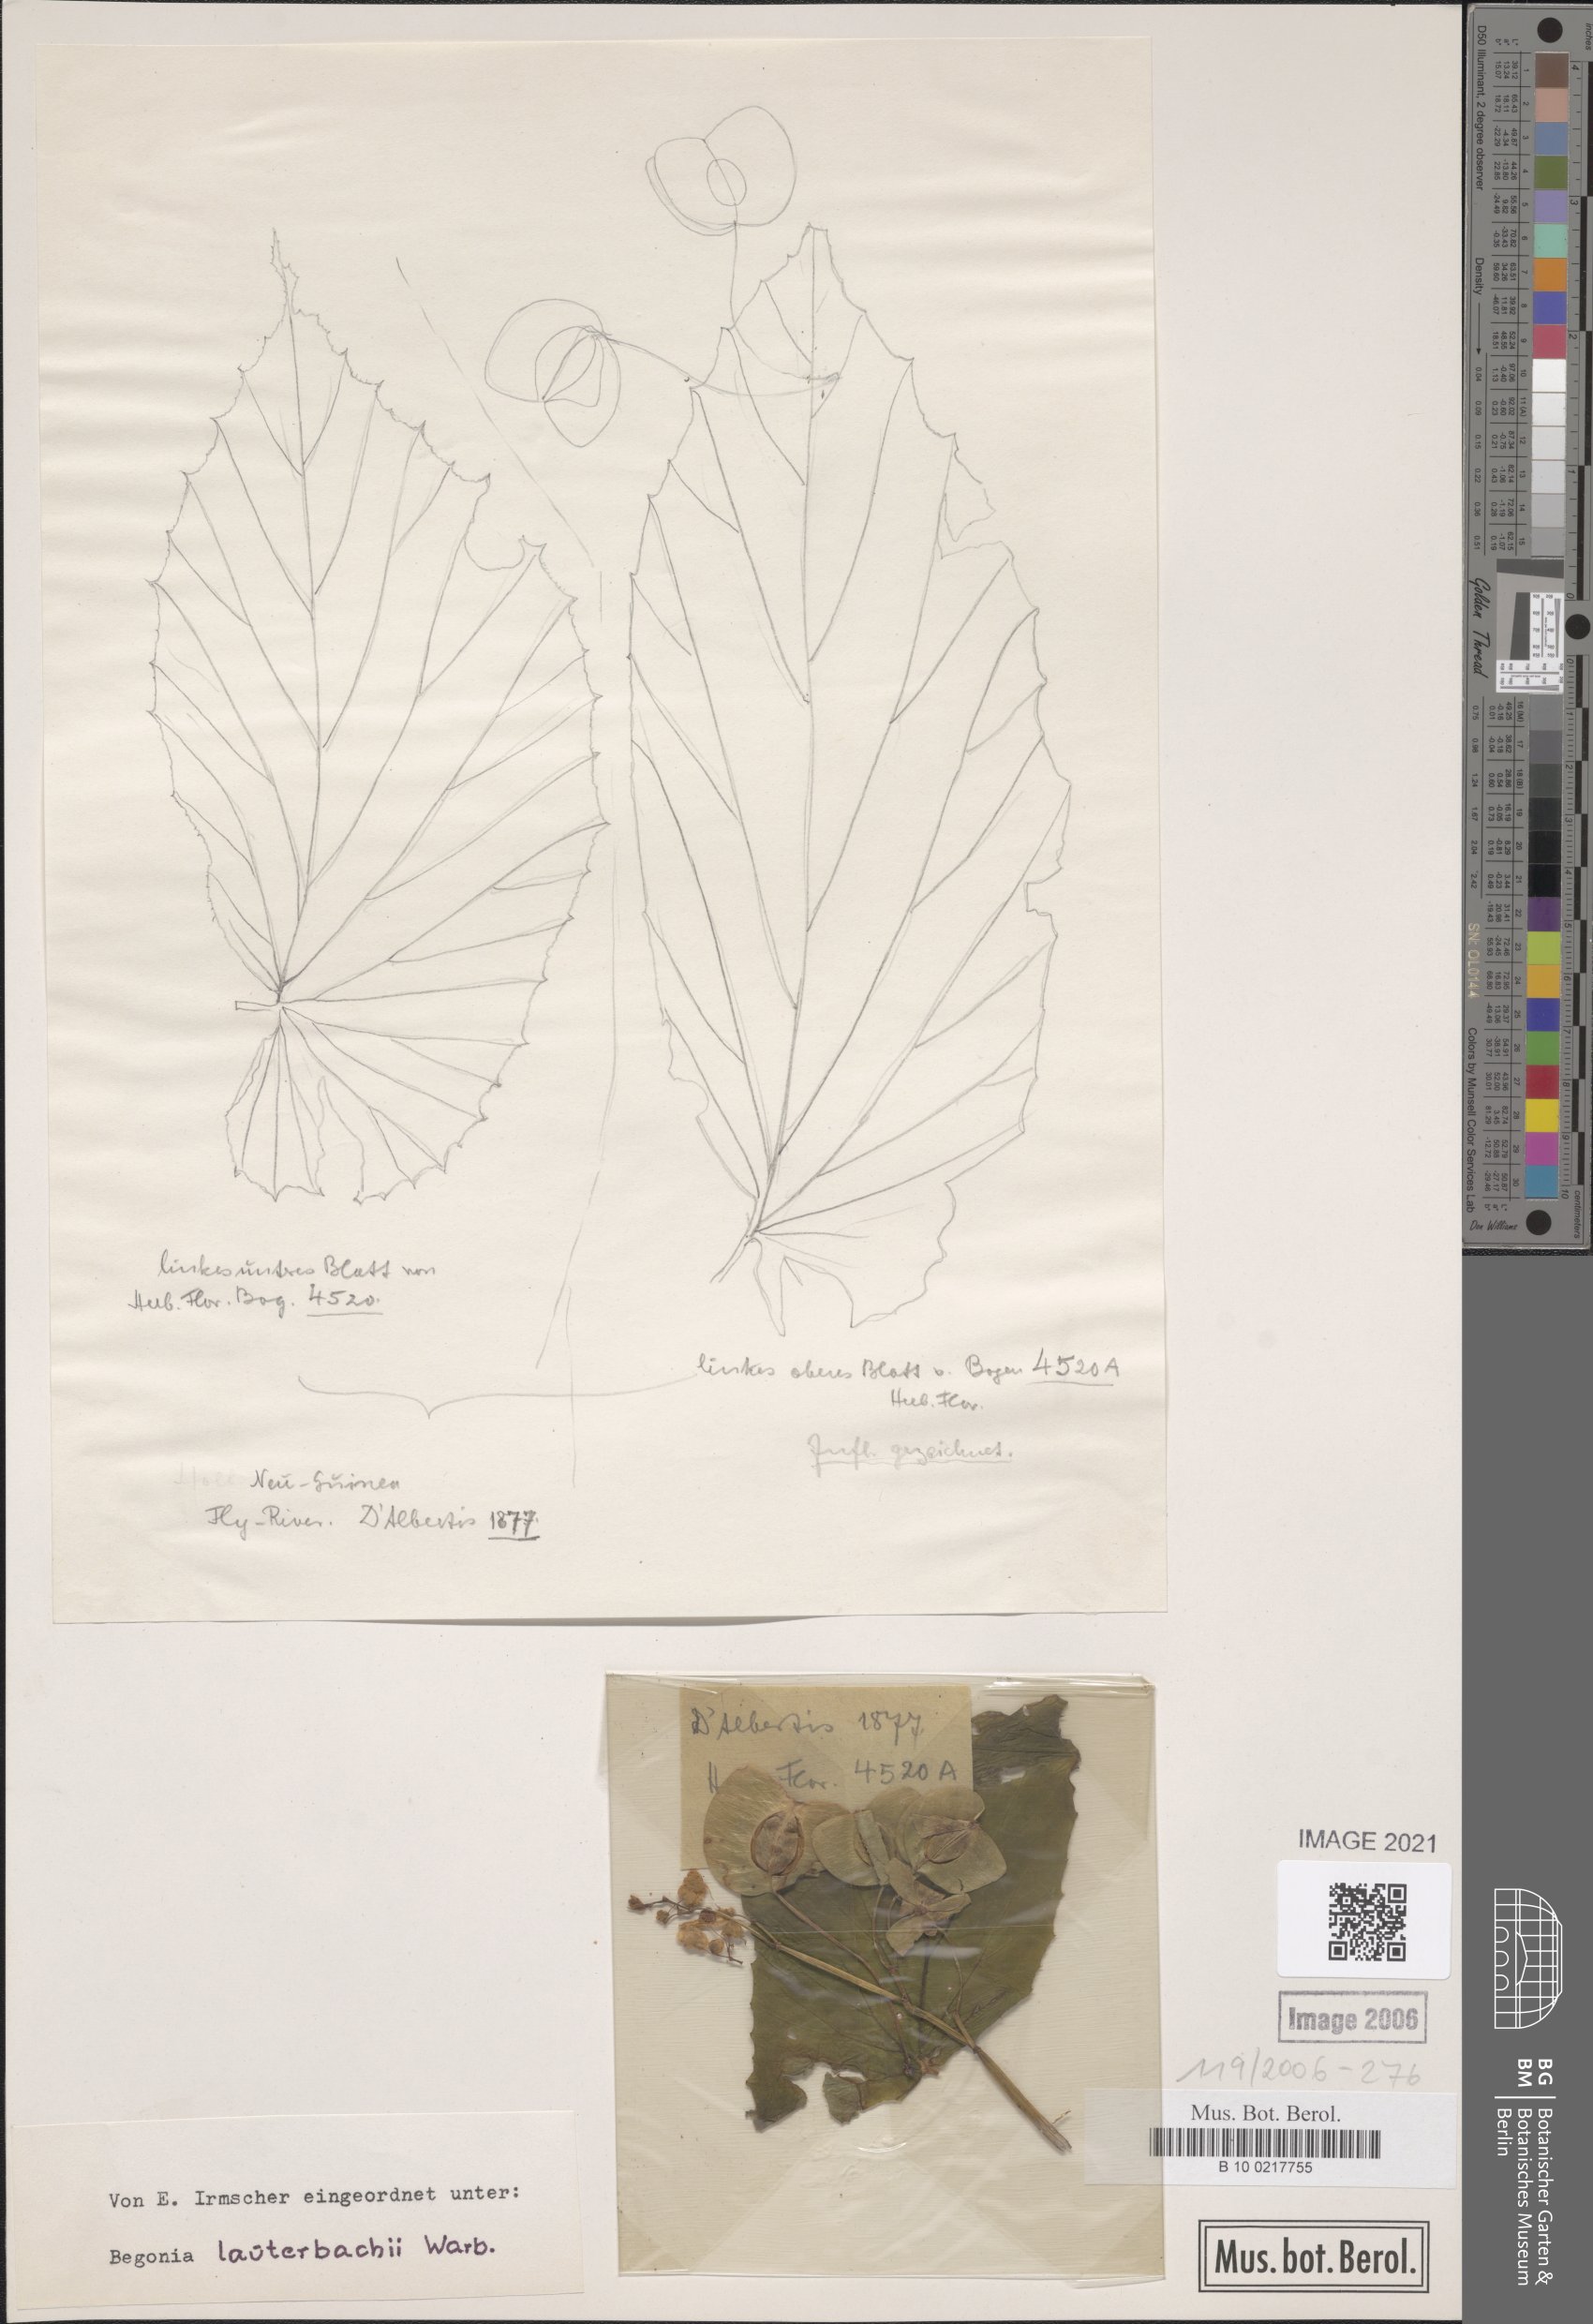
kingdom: Plantae
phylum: Tracheophyta
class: Magnoliopsida
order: Cucurbitales
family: Begoniaceae
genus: Begonia
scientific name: Begonia lauterbachii
